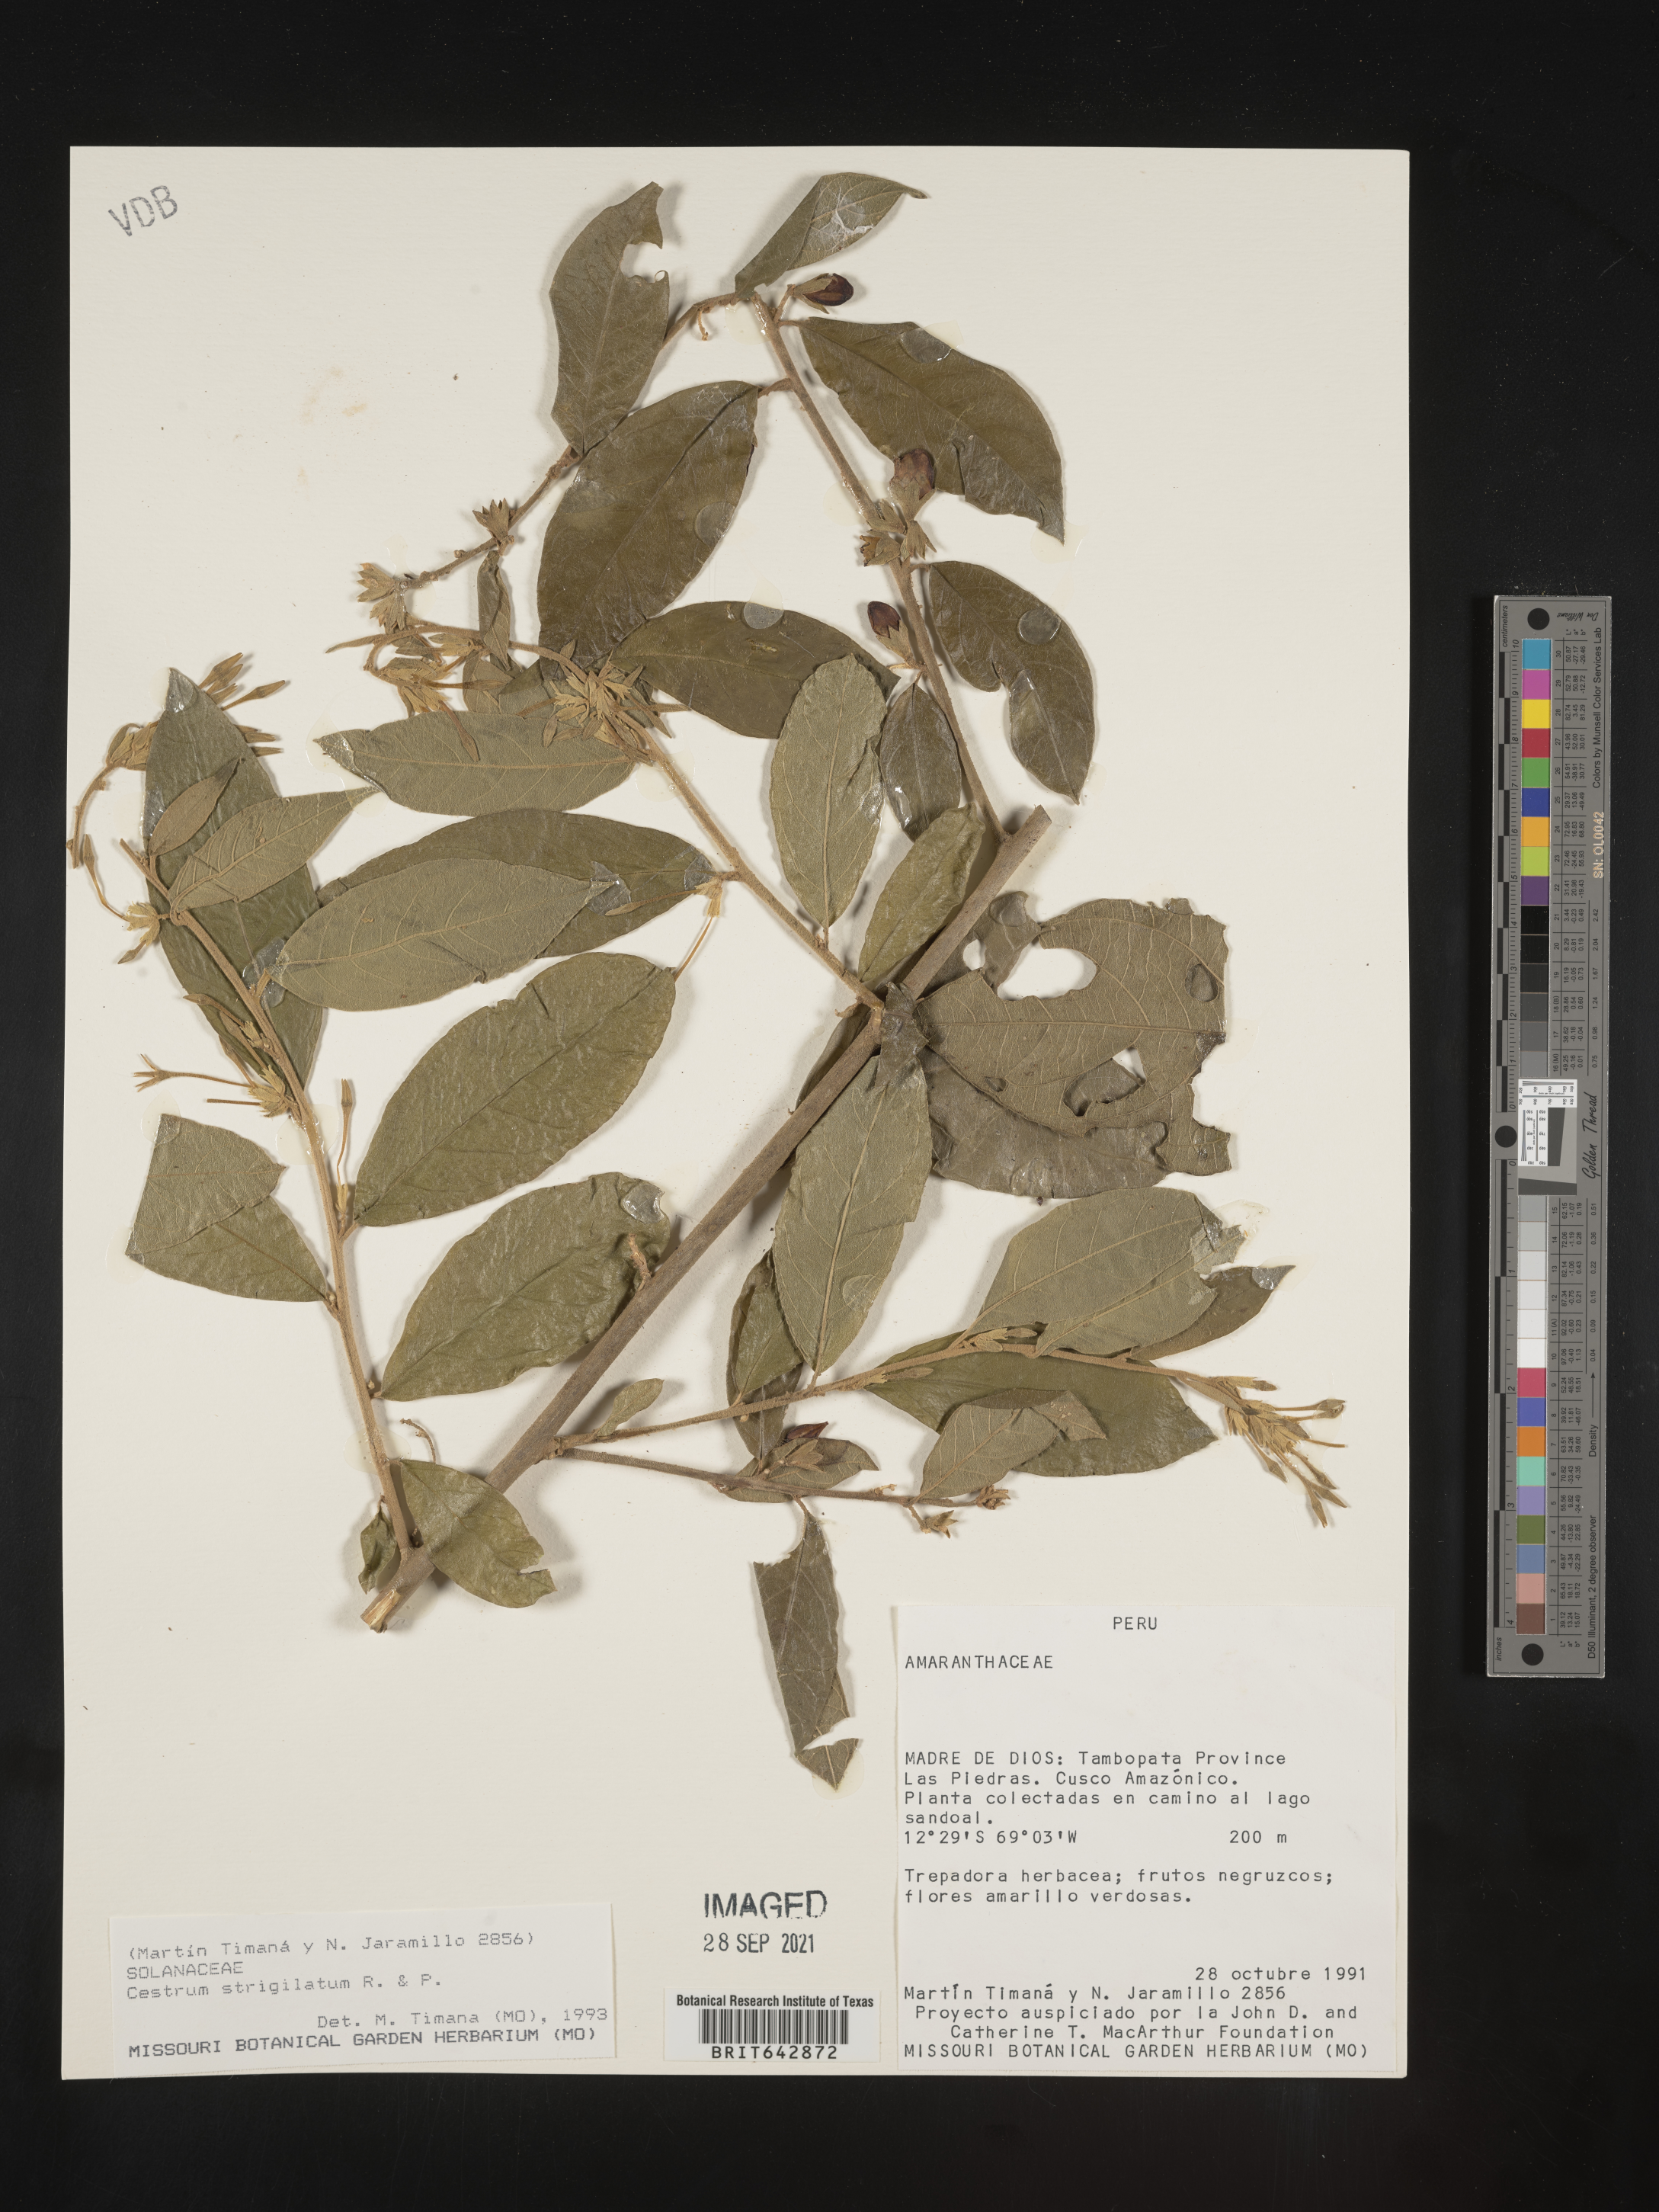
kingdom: Plantae
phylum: Tracheophyta
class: Magnoliopsida
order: Solanales
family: Solanaceae
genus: Cestrum
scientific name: Cestrum
